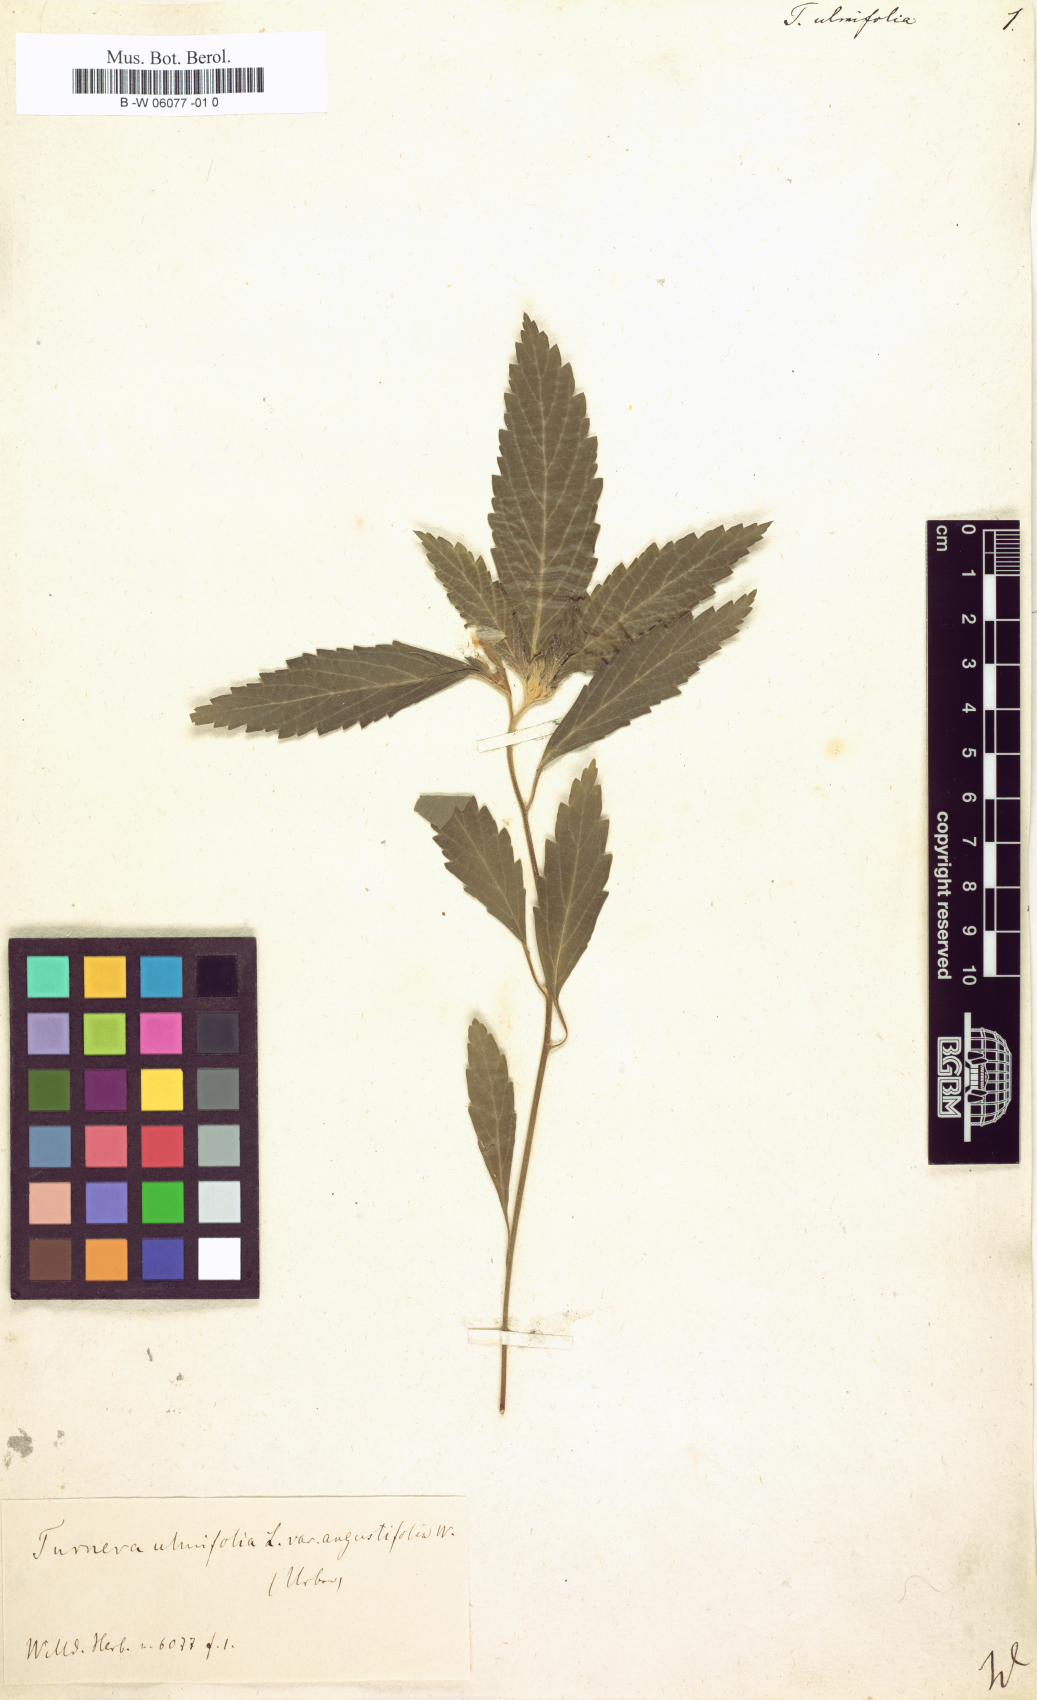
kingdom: Plantae
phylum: Tracheophyta
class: Magnoliopsida
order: Malpighiales
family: Turneraceae
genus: Turnera
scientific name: Turnera ulmifolia
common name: Ramgoat dashalong
